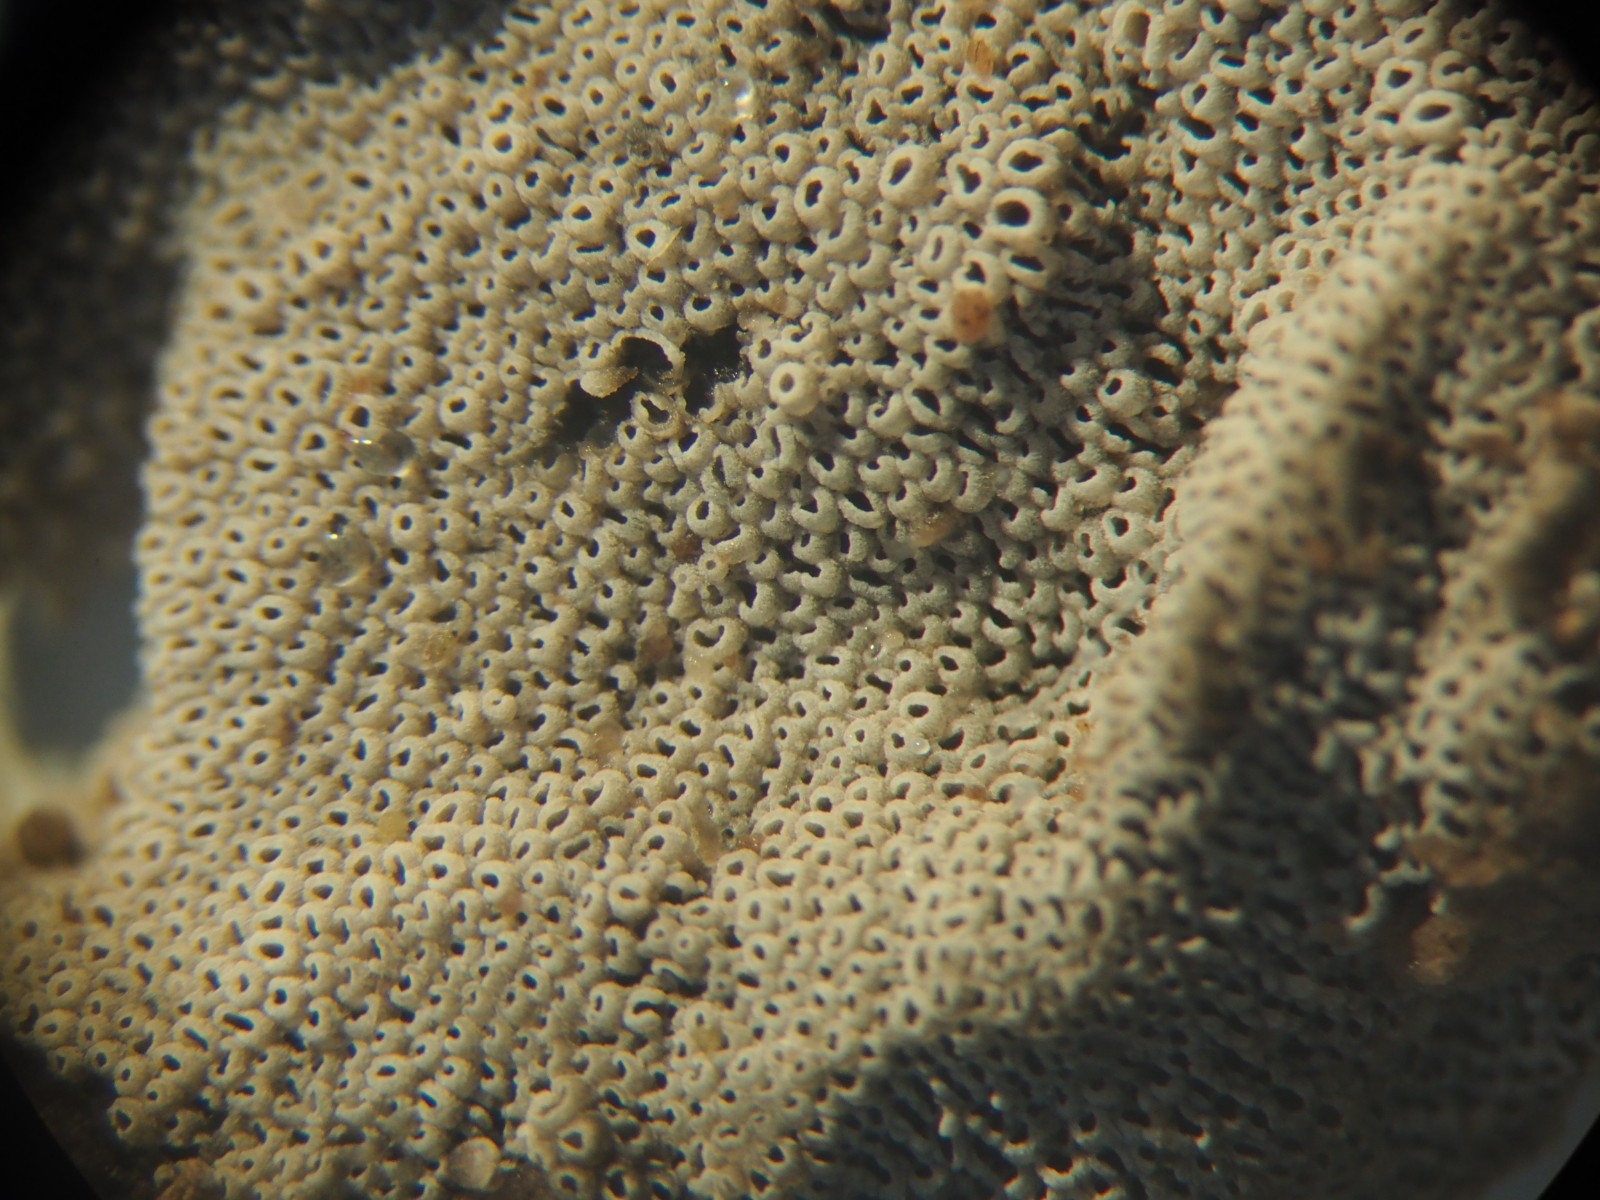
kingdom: Fungi
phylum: Basidiomycota
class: Agaricomycetes
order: Agaricales
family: Pleurotaceae
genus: Resupinatus
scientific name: Resupinatus poriaeformis
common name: tæpperør
